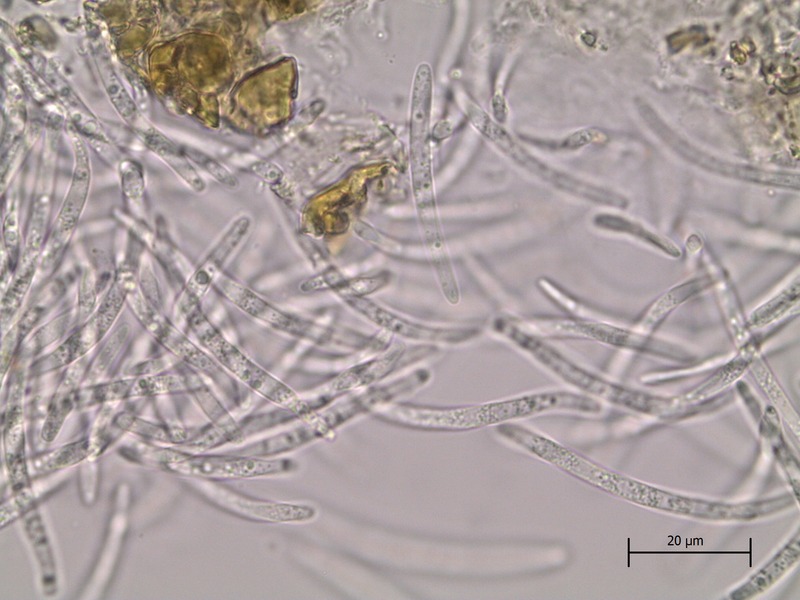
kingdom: Fungi
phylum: Ascomycota
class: Dothideomycetes
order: Capnodiales
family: Mycosphaerellaceae
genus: Septoria
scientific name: Septoria cornicola
